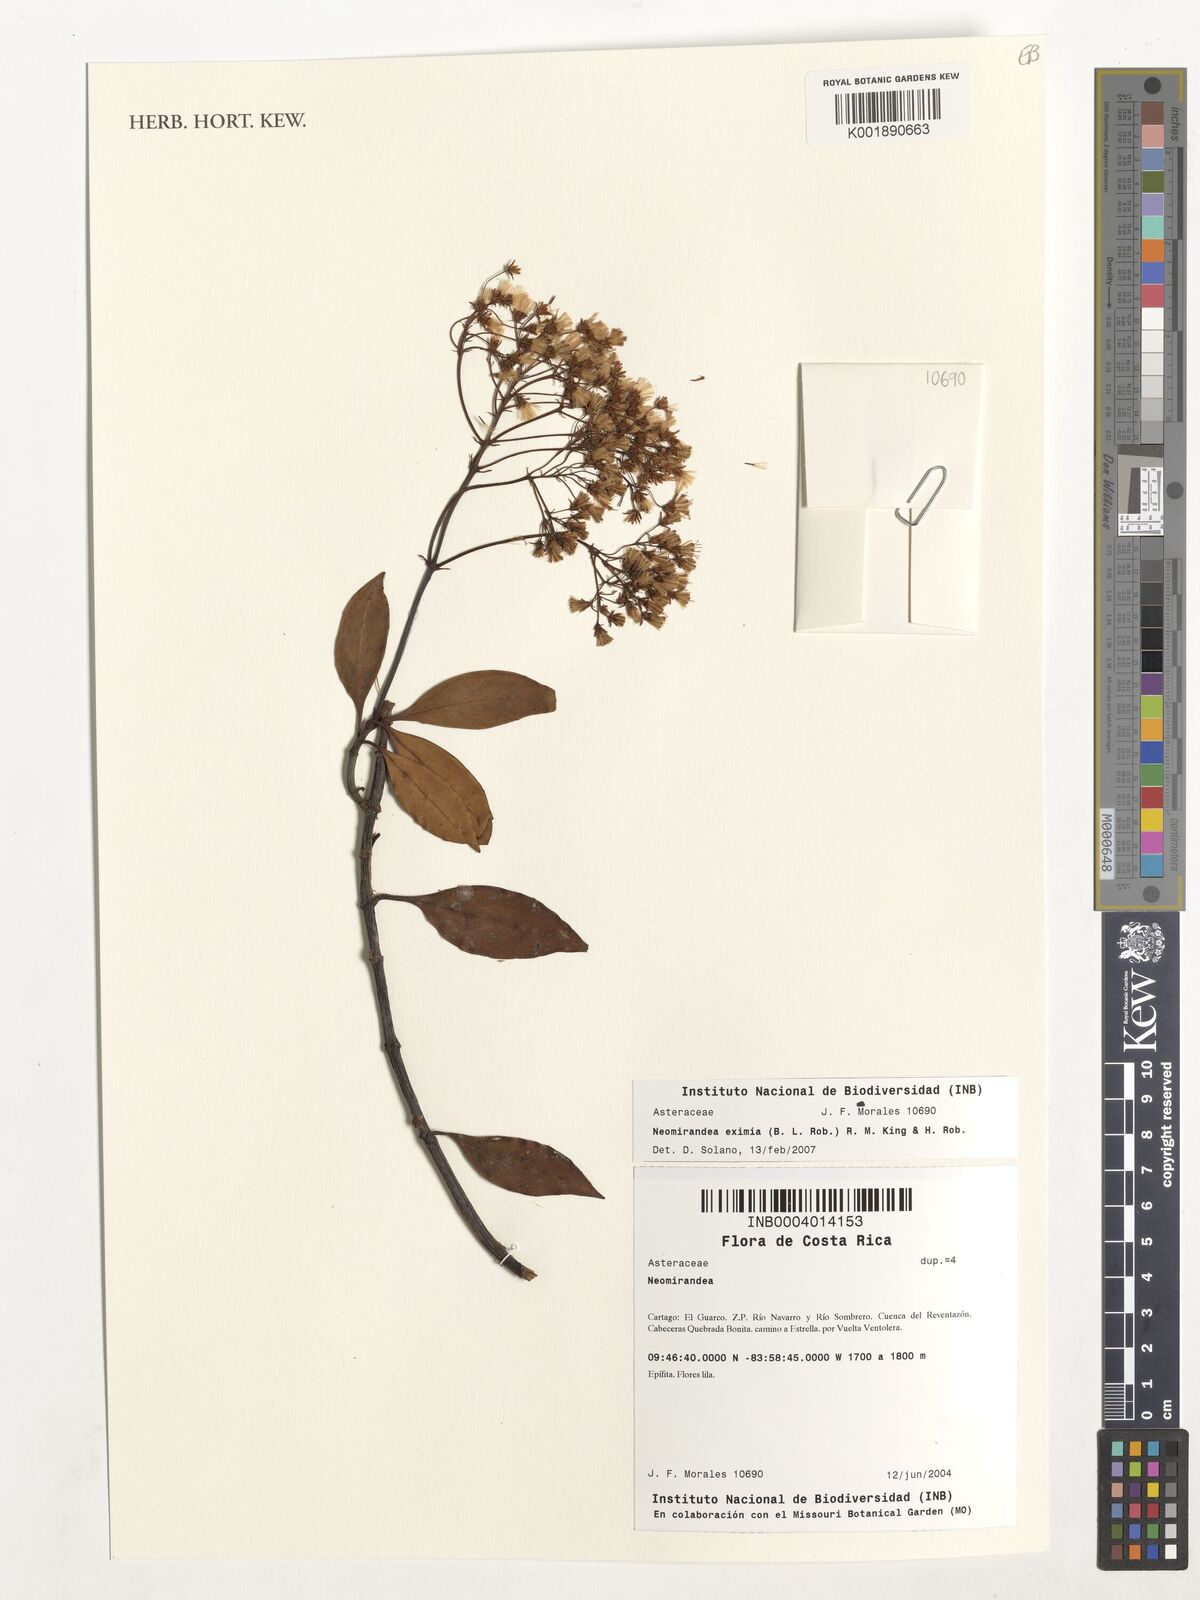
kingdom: Plantae
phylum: Tracheophyta
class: Magnoliopsida
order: Asterales
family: Asteraceae
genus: Neomirandea
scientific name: Neomirandea eximia
